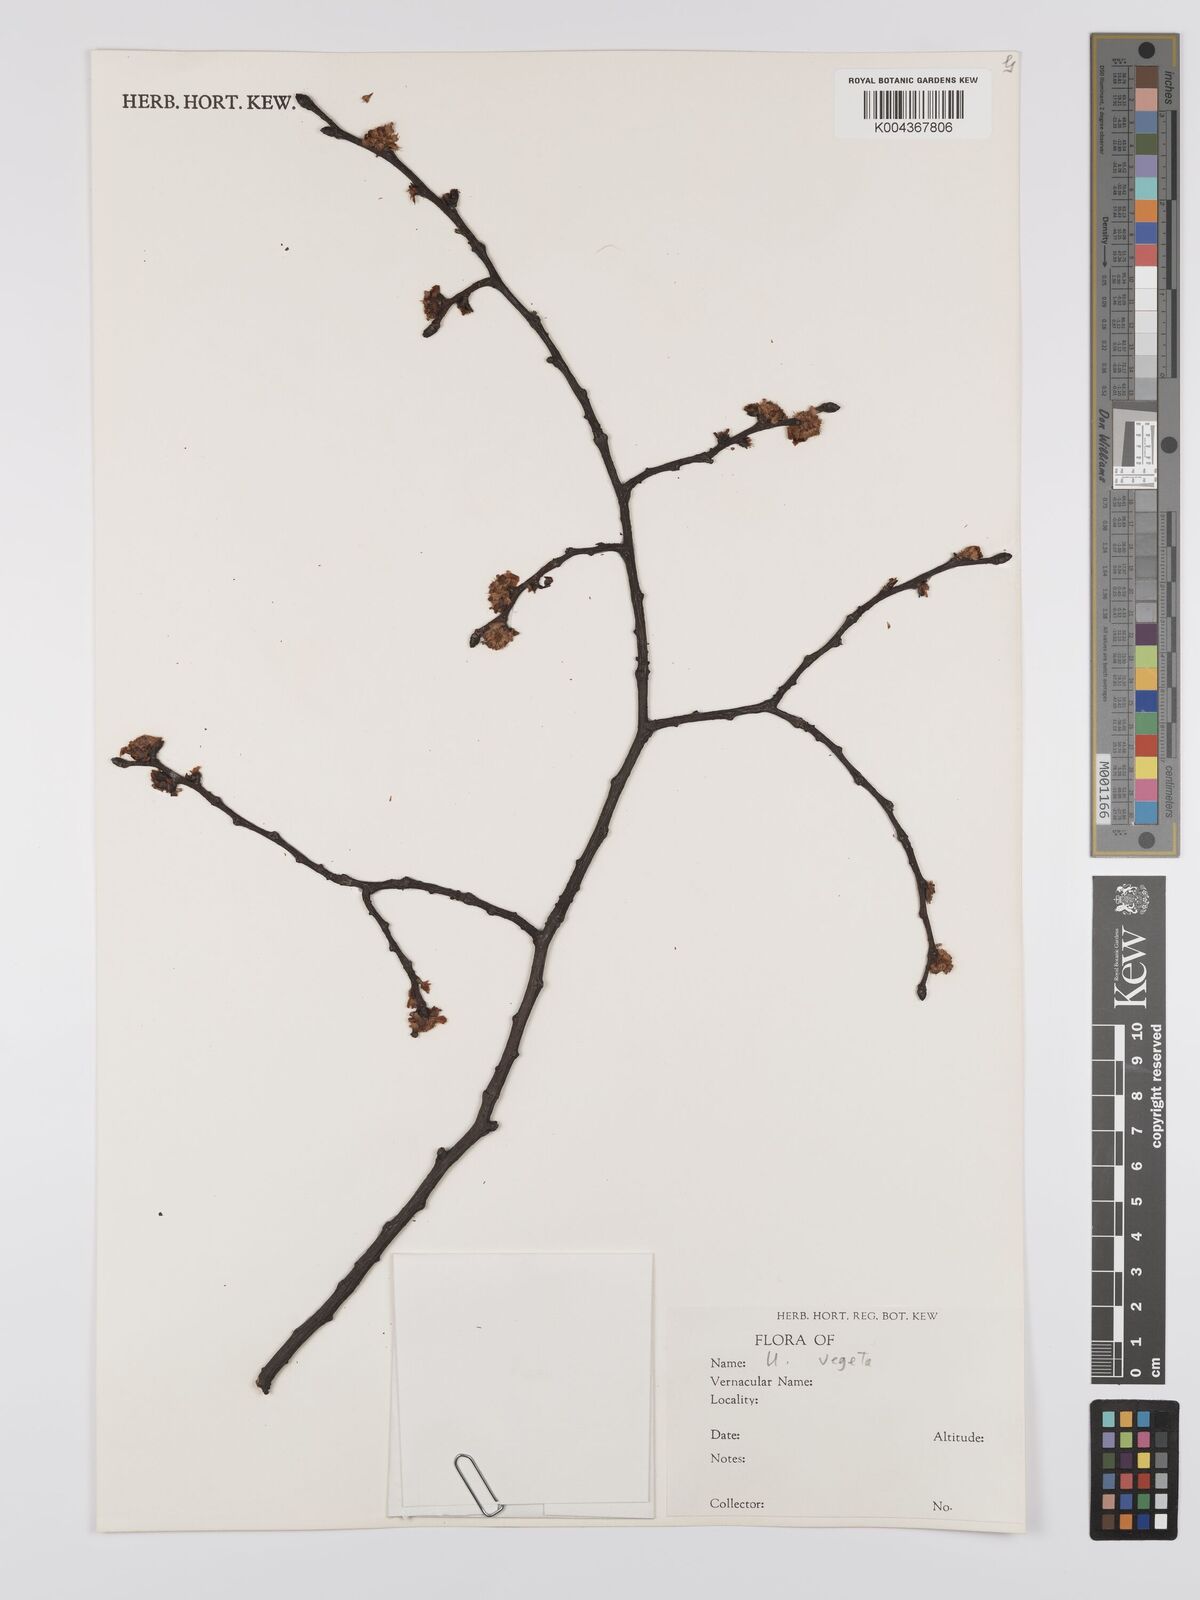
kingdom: Plantae
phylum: Tracheophyta
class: Magnoliopsida
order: Rosales
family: Ulmaceae
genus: Ulmus
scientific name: Ulmus hollandica
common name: Dutch elm
